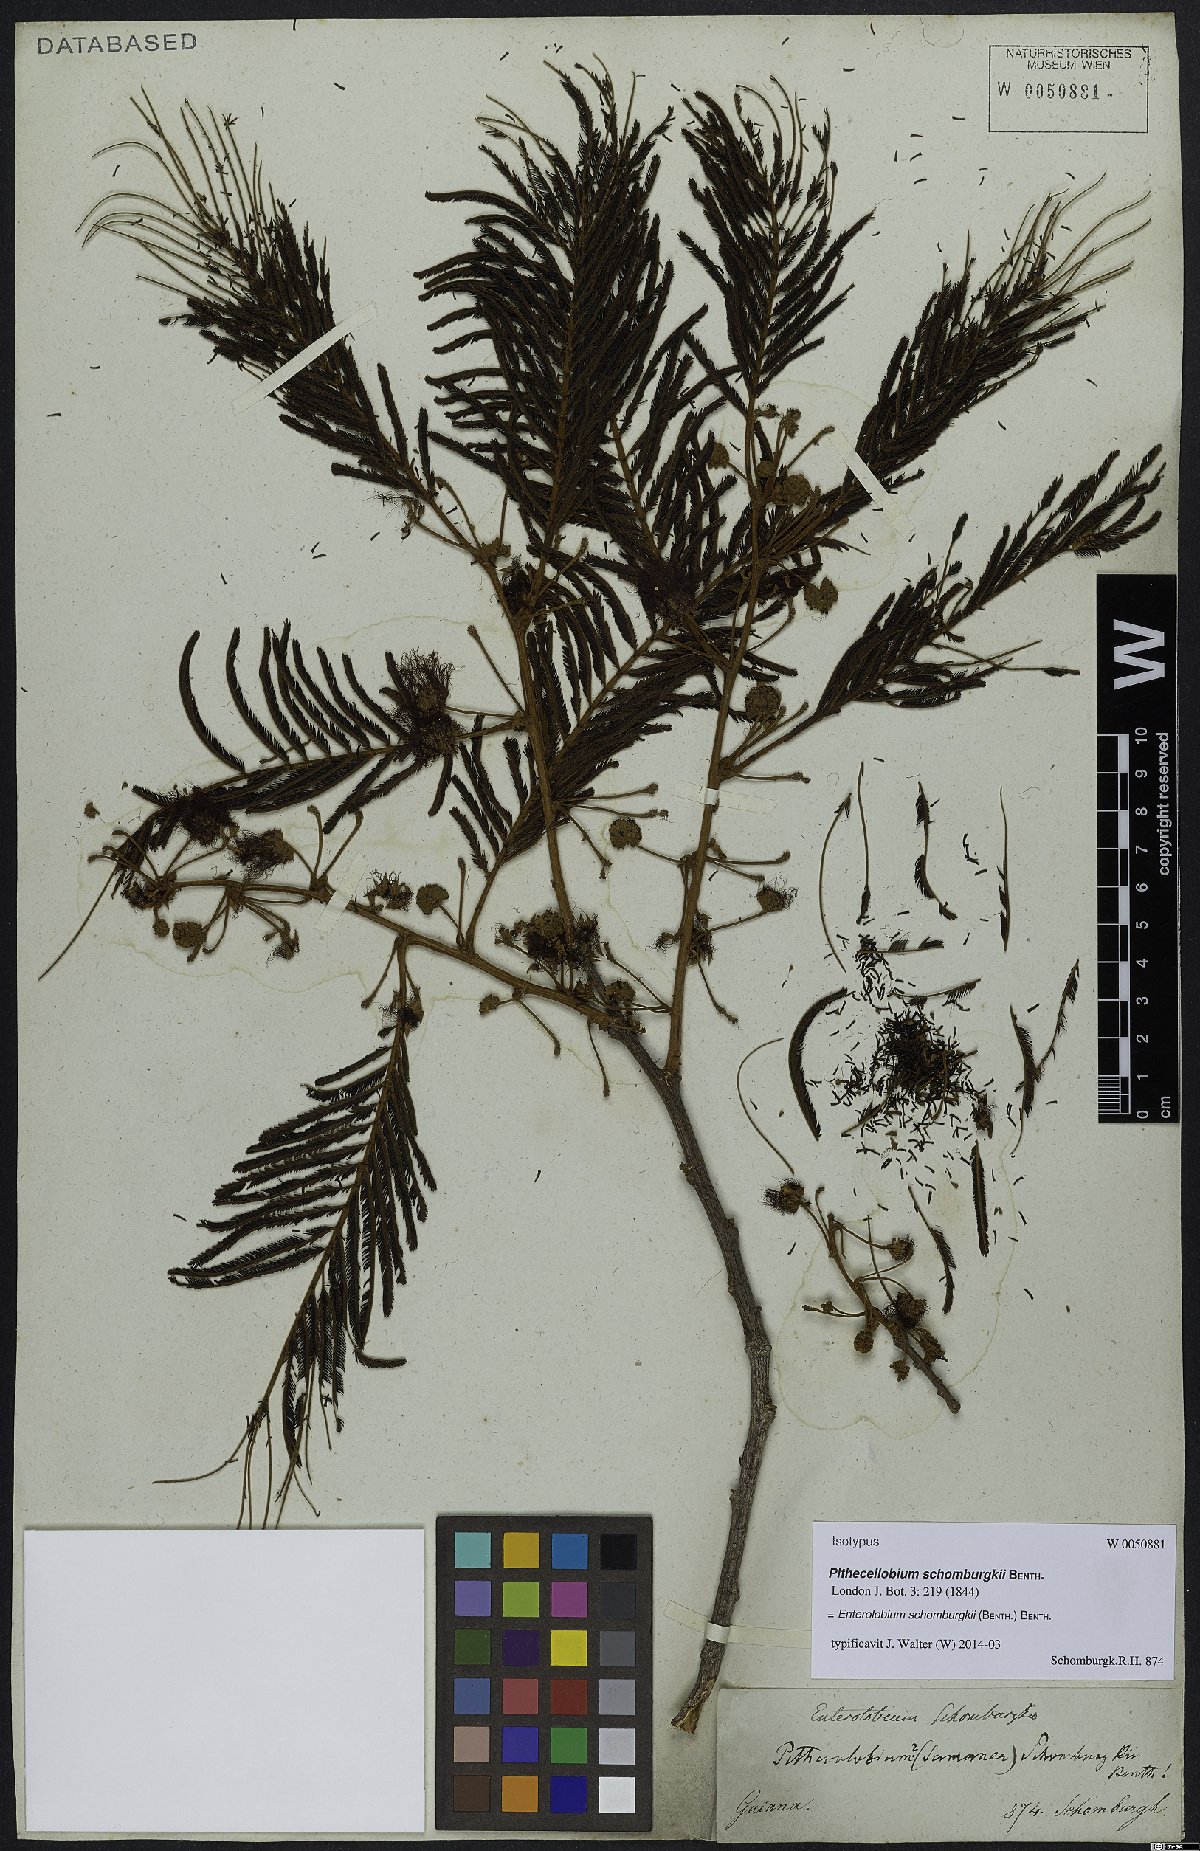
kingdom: Plantae
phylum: Tracheophyta
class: Magnoliopsida
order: Fabales
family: Fabaceae
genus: Enterolobium
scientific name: Enterolobium schomburgkii
